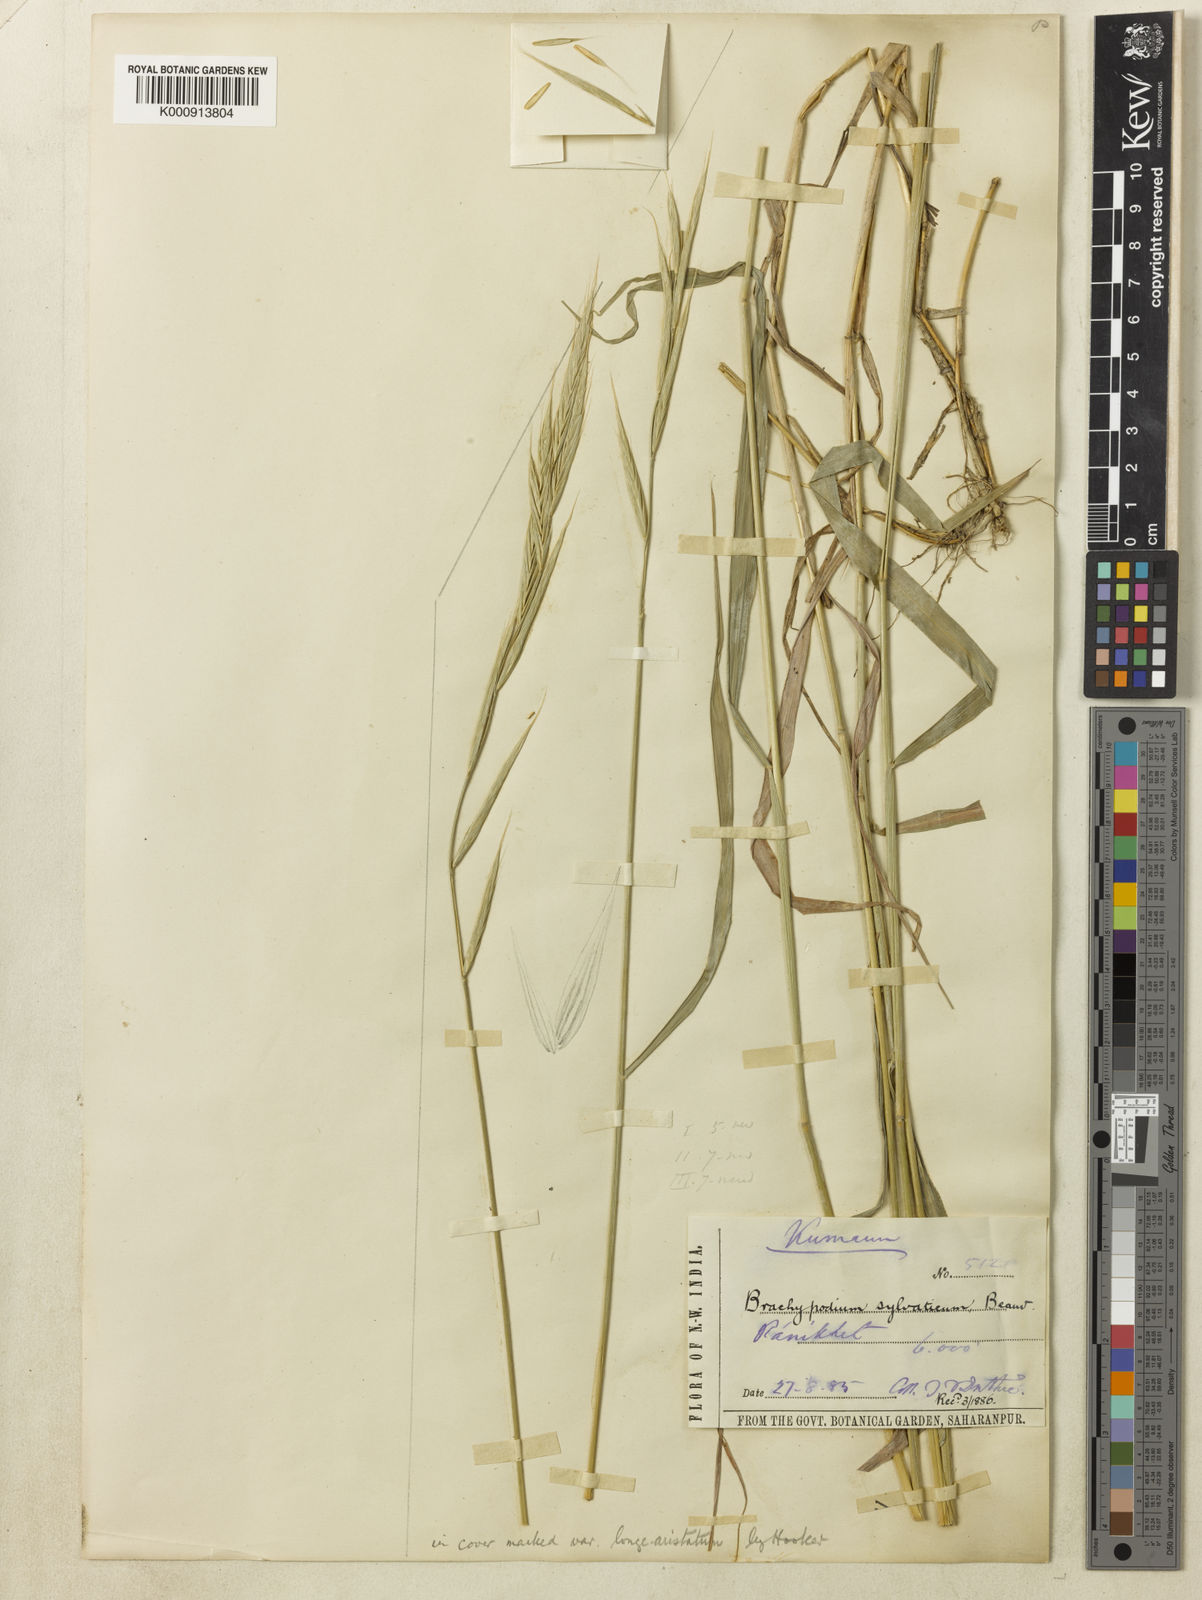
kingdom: Plantae
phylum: Tracheophyta
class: Liliopsida
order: Poales
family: Poaceae
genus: Brachypodium
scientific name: Brachypodium sylvaticum
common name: False-brome
